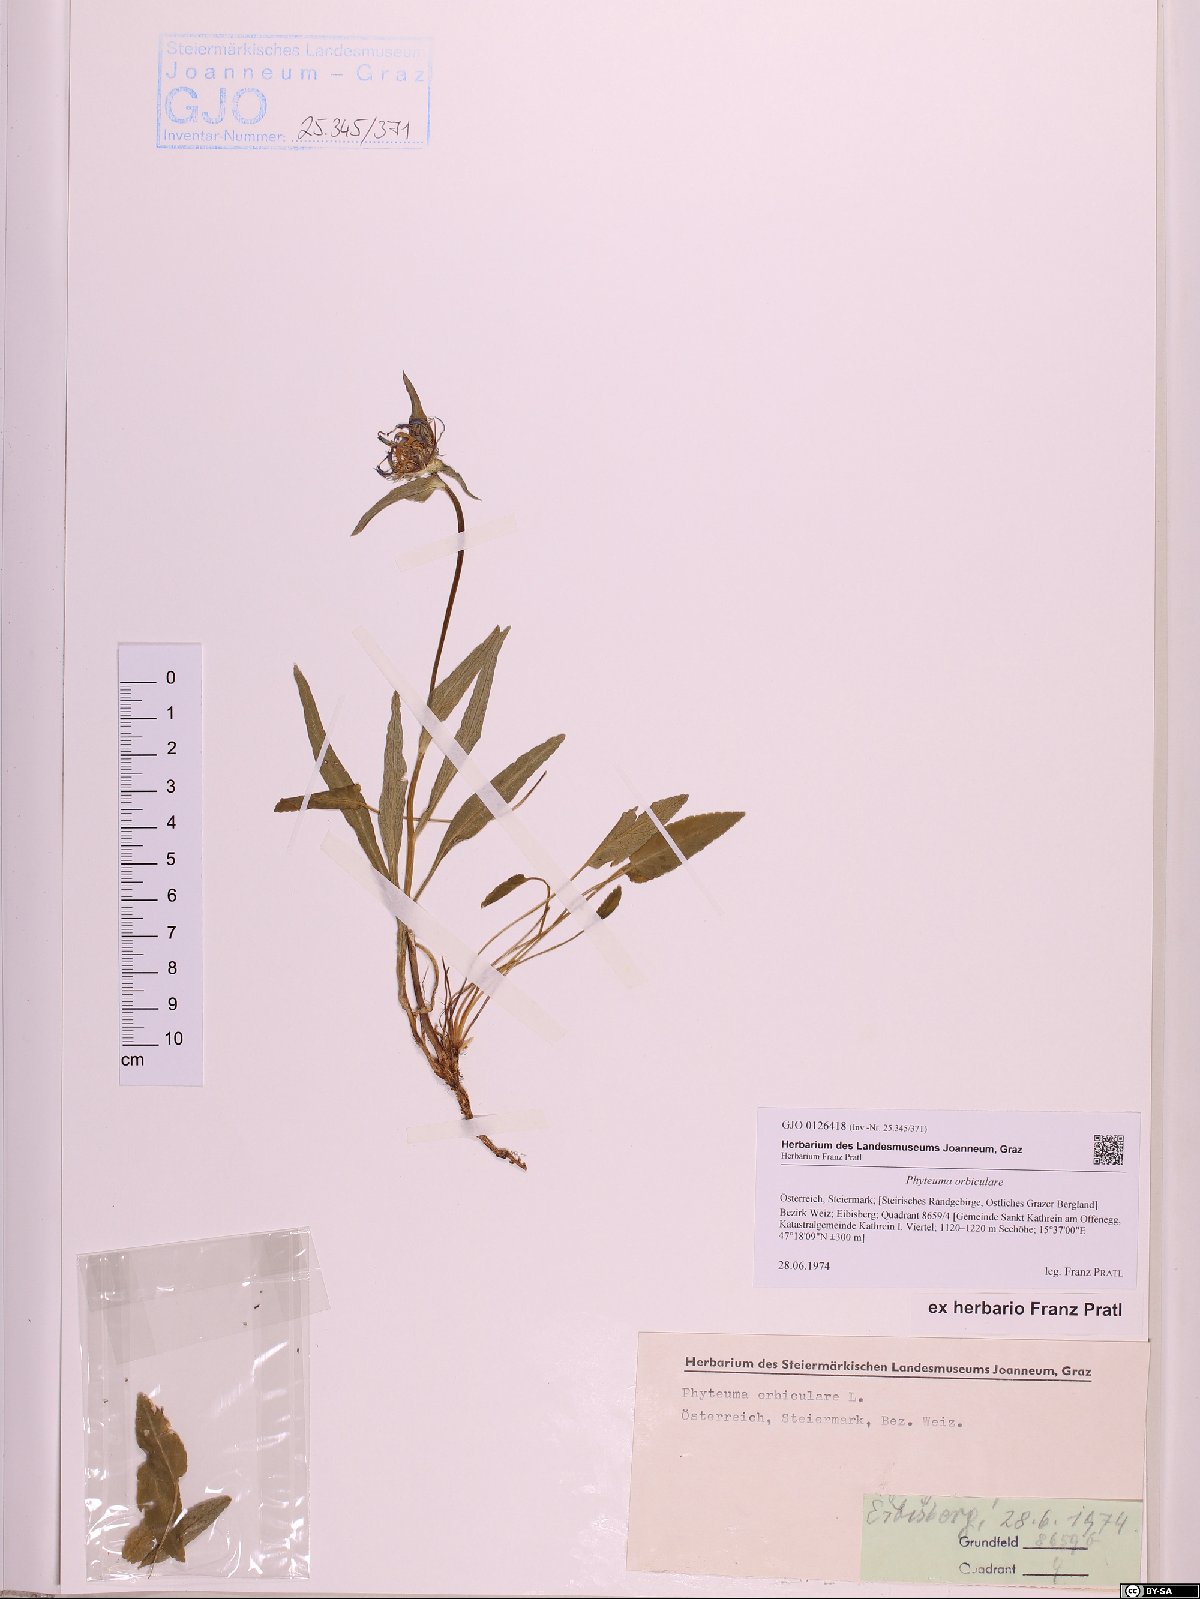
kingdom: Plantae
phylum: Tracheophyta
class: Magnoliopsida
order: Asterales
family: Campanulaceae
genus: Phyteuma
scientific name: Phyteuma orbiculare
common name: Round-headed rampion
